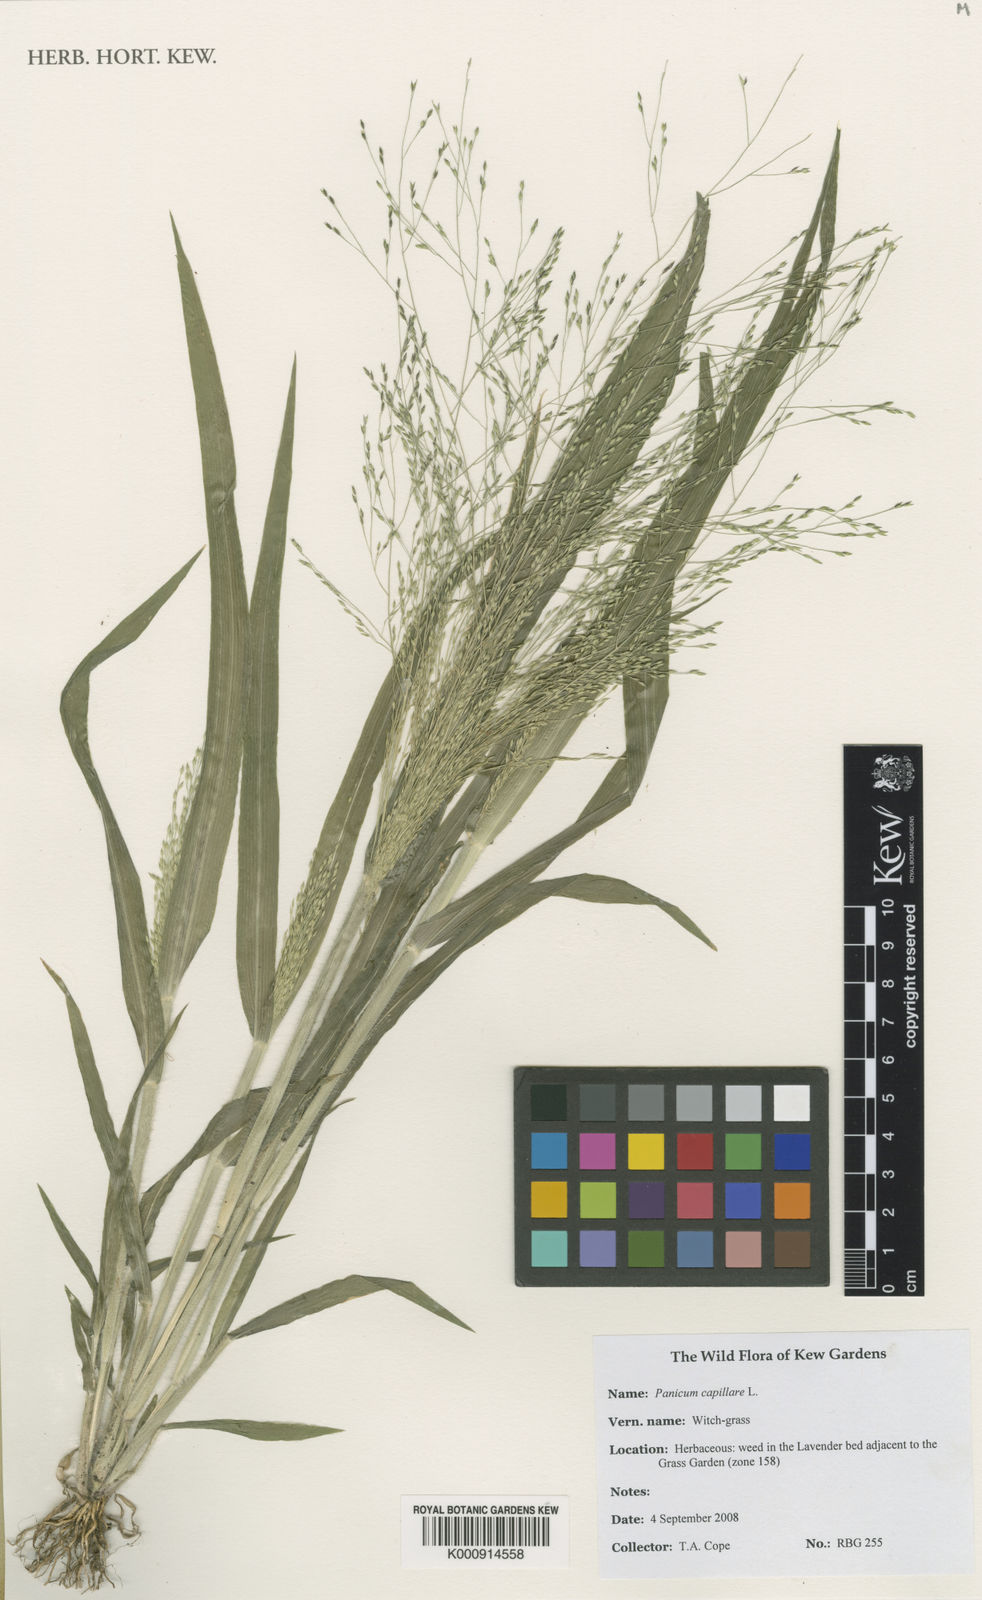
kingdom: Plantae
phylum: Tracheophyta
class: Liliopsida
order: Poales
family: Poaceae
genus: Panicum
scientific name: Panicum capillare
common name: Witch-grass
